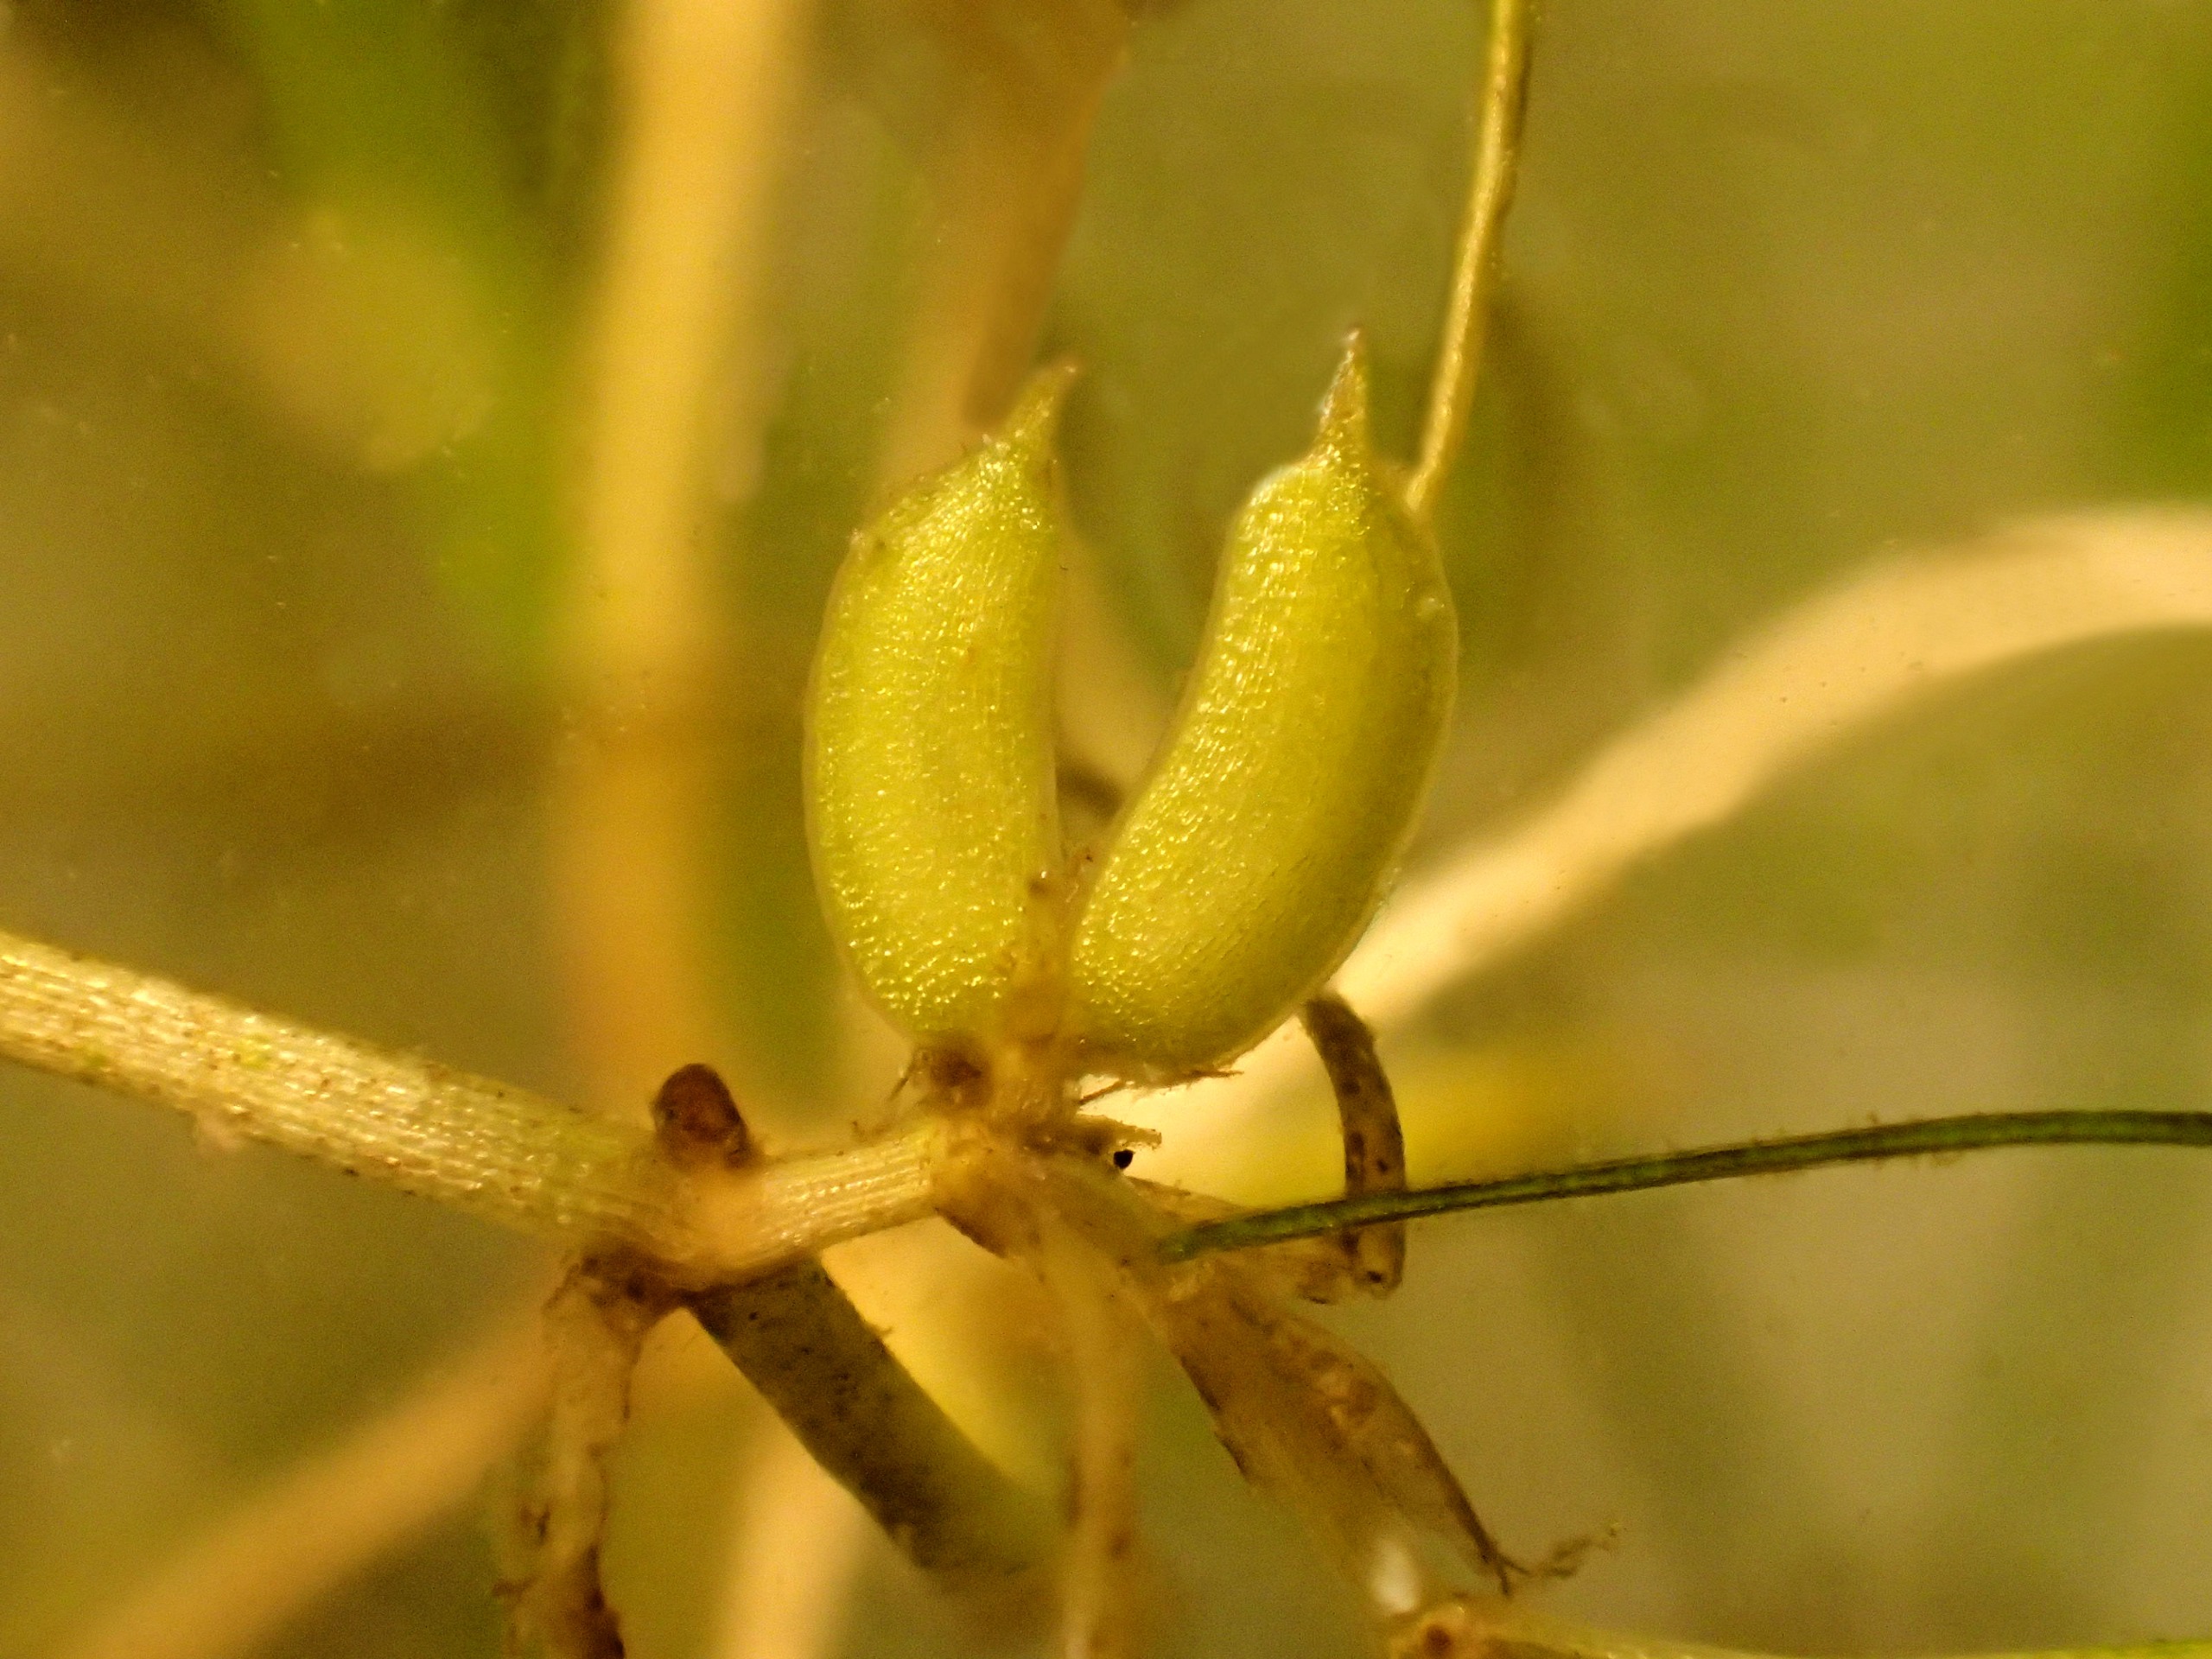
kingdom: Plantae
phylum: Tracheophyta
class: Liliopsida
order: Alismatales
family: Potamogetonaceae
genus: Zannichellia
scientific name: Zannichellia palustris
